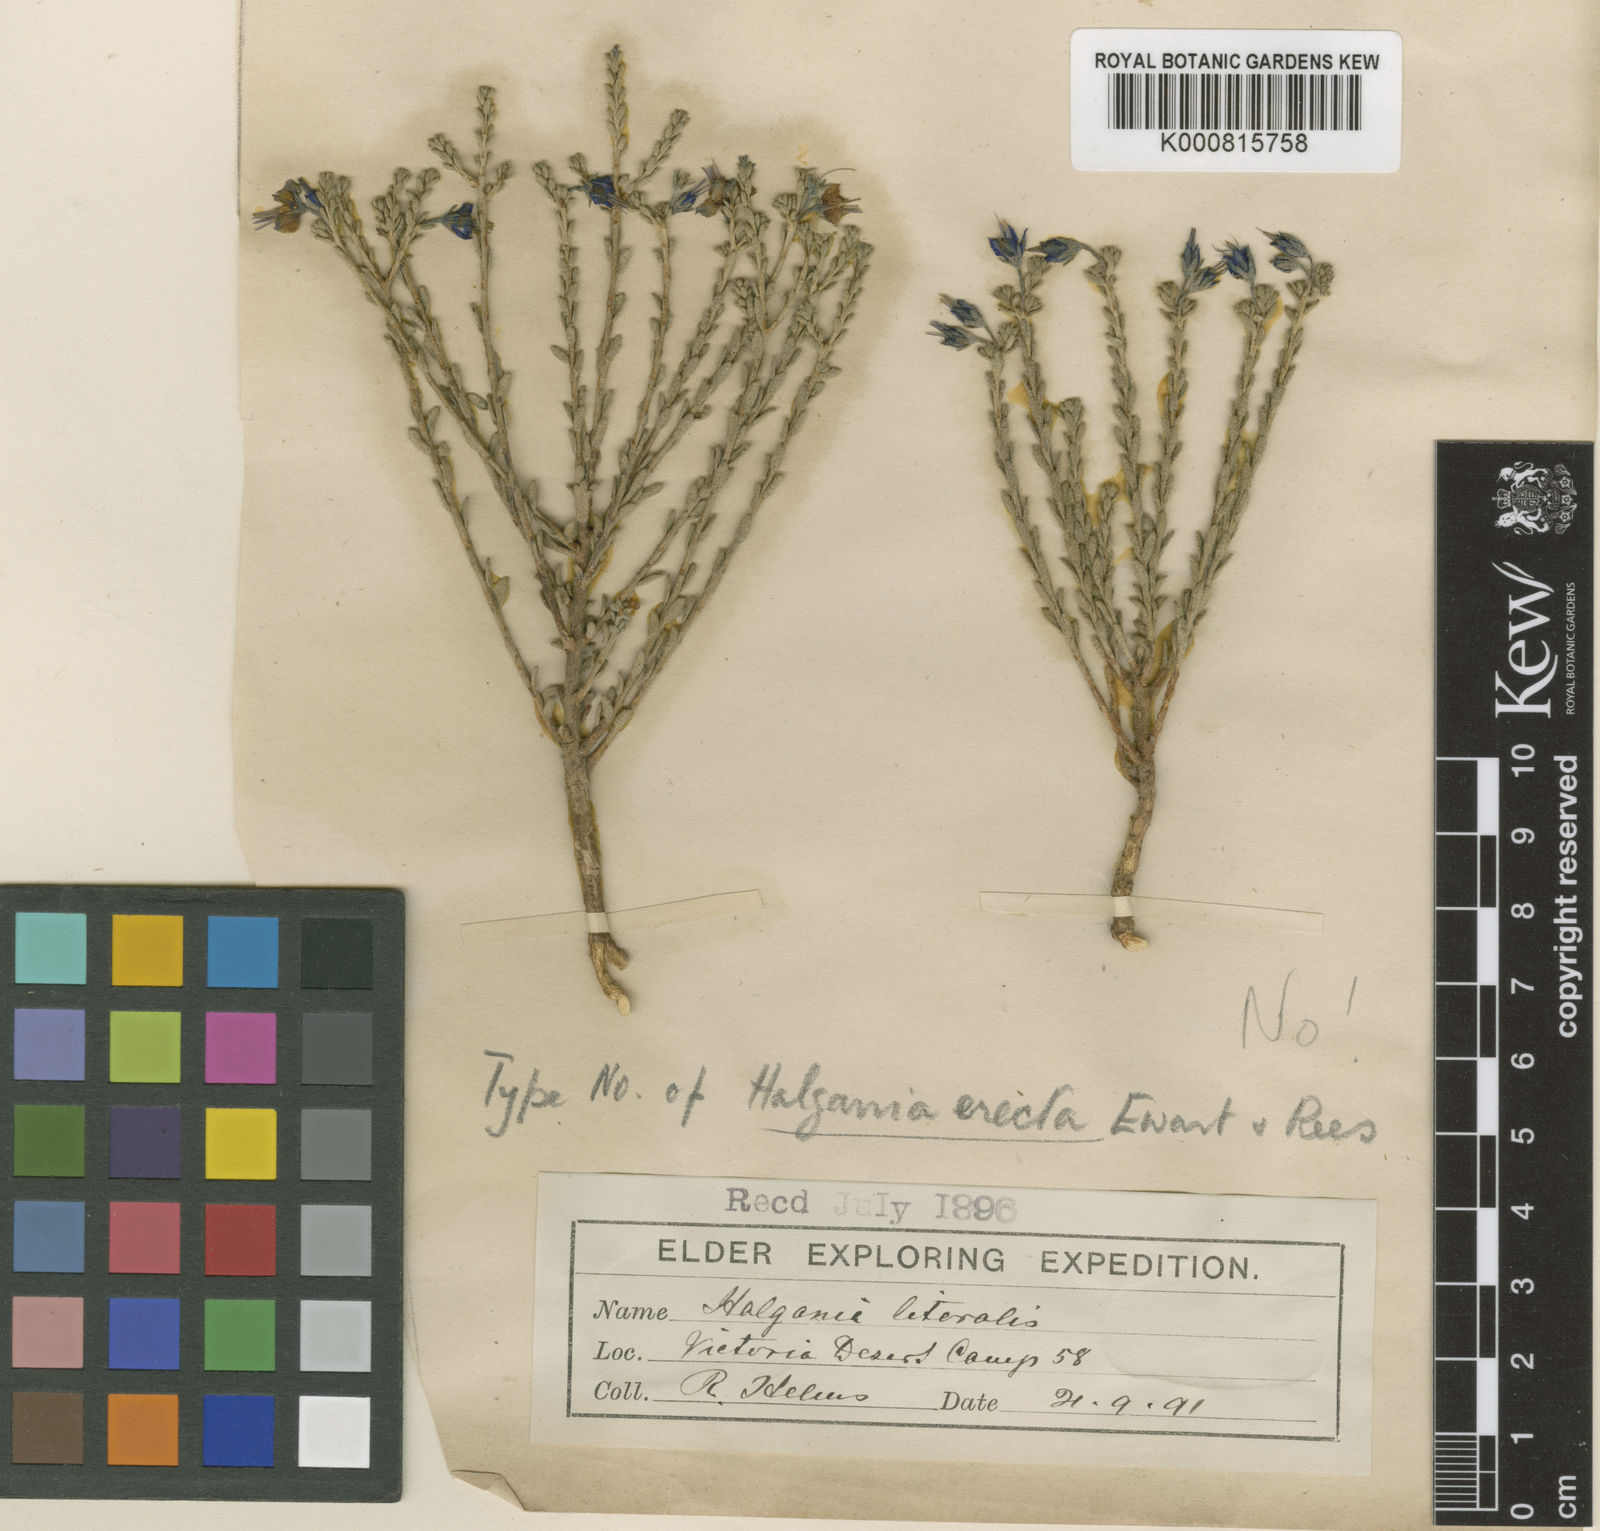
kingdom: Plantae
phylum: Tracheophyta
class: Magnoliopsida
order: Boraginales
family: Ehretiaceae
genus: Halgania
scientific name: Halgania erecta
